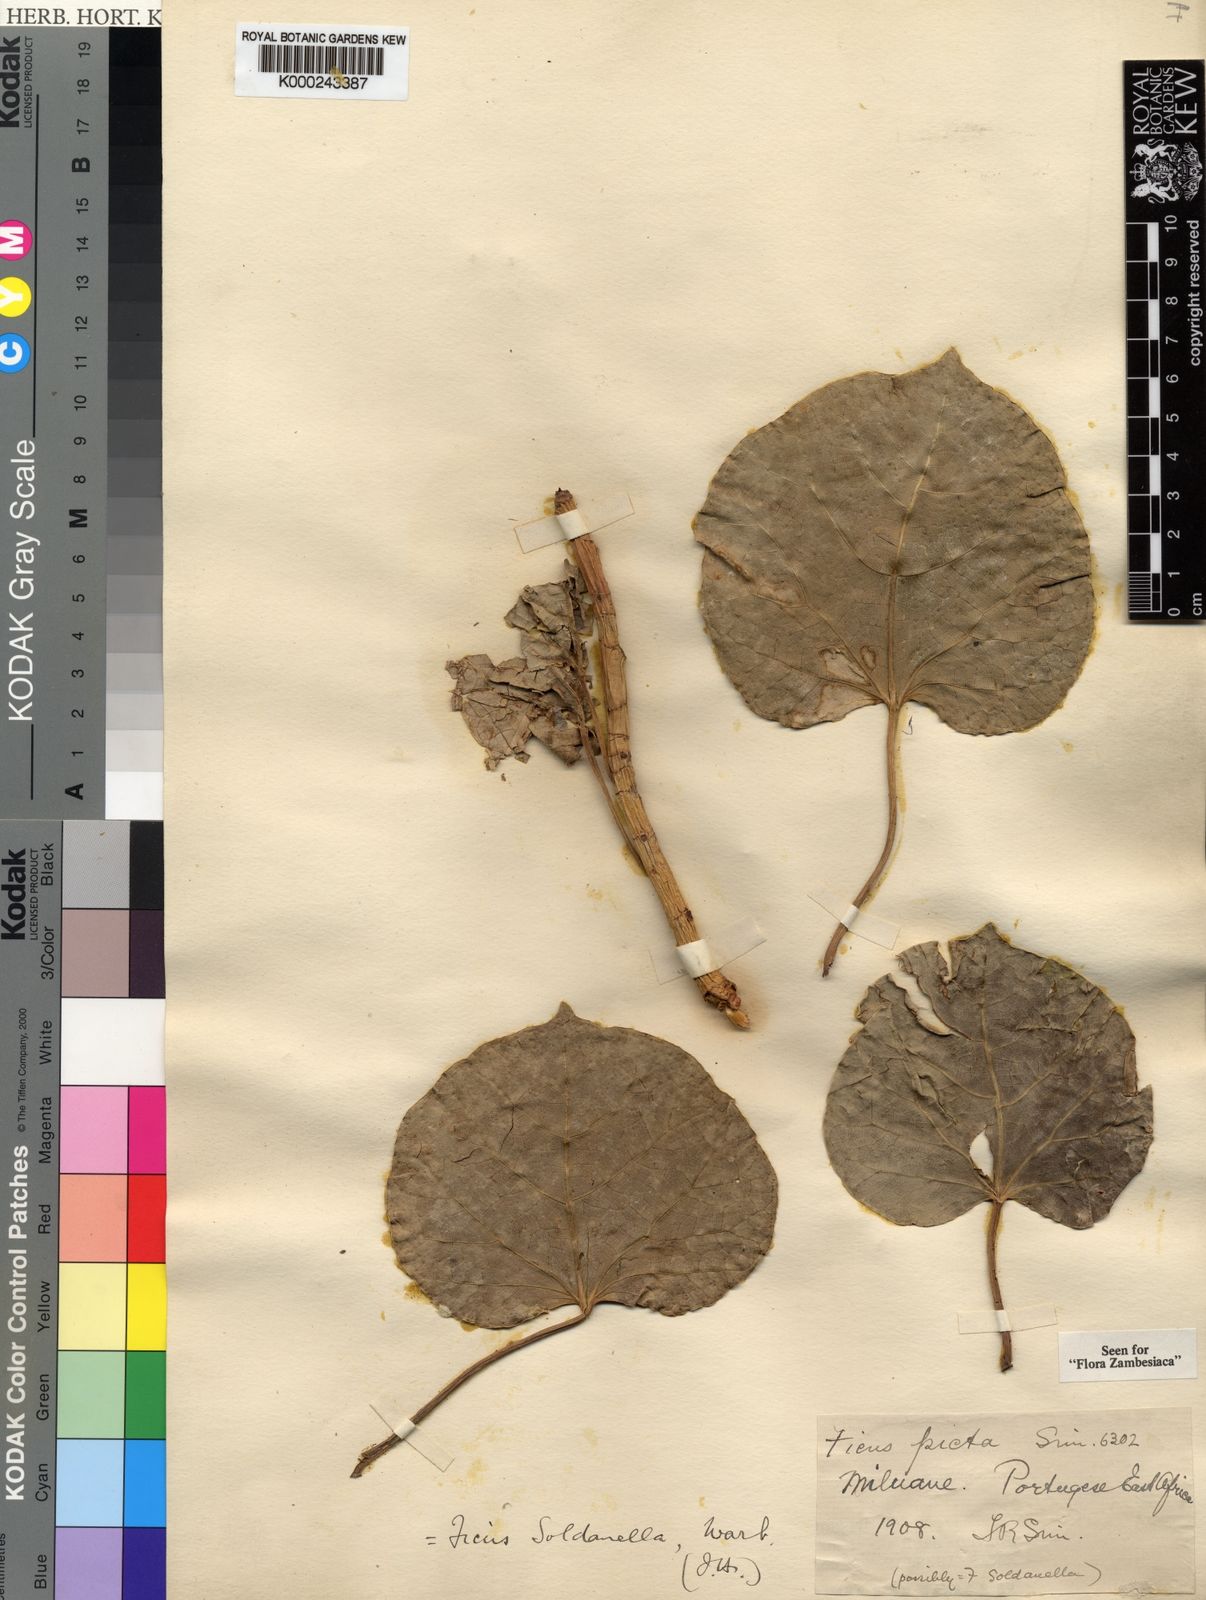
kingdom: Plantae
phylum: Tracheophyta
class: Magnoliopsida
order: Rosales
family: Moraceae
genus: Ficus
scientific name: Ficus abutilifolia
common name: Large-leaved rock fig
